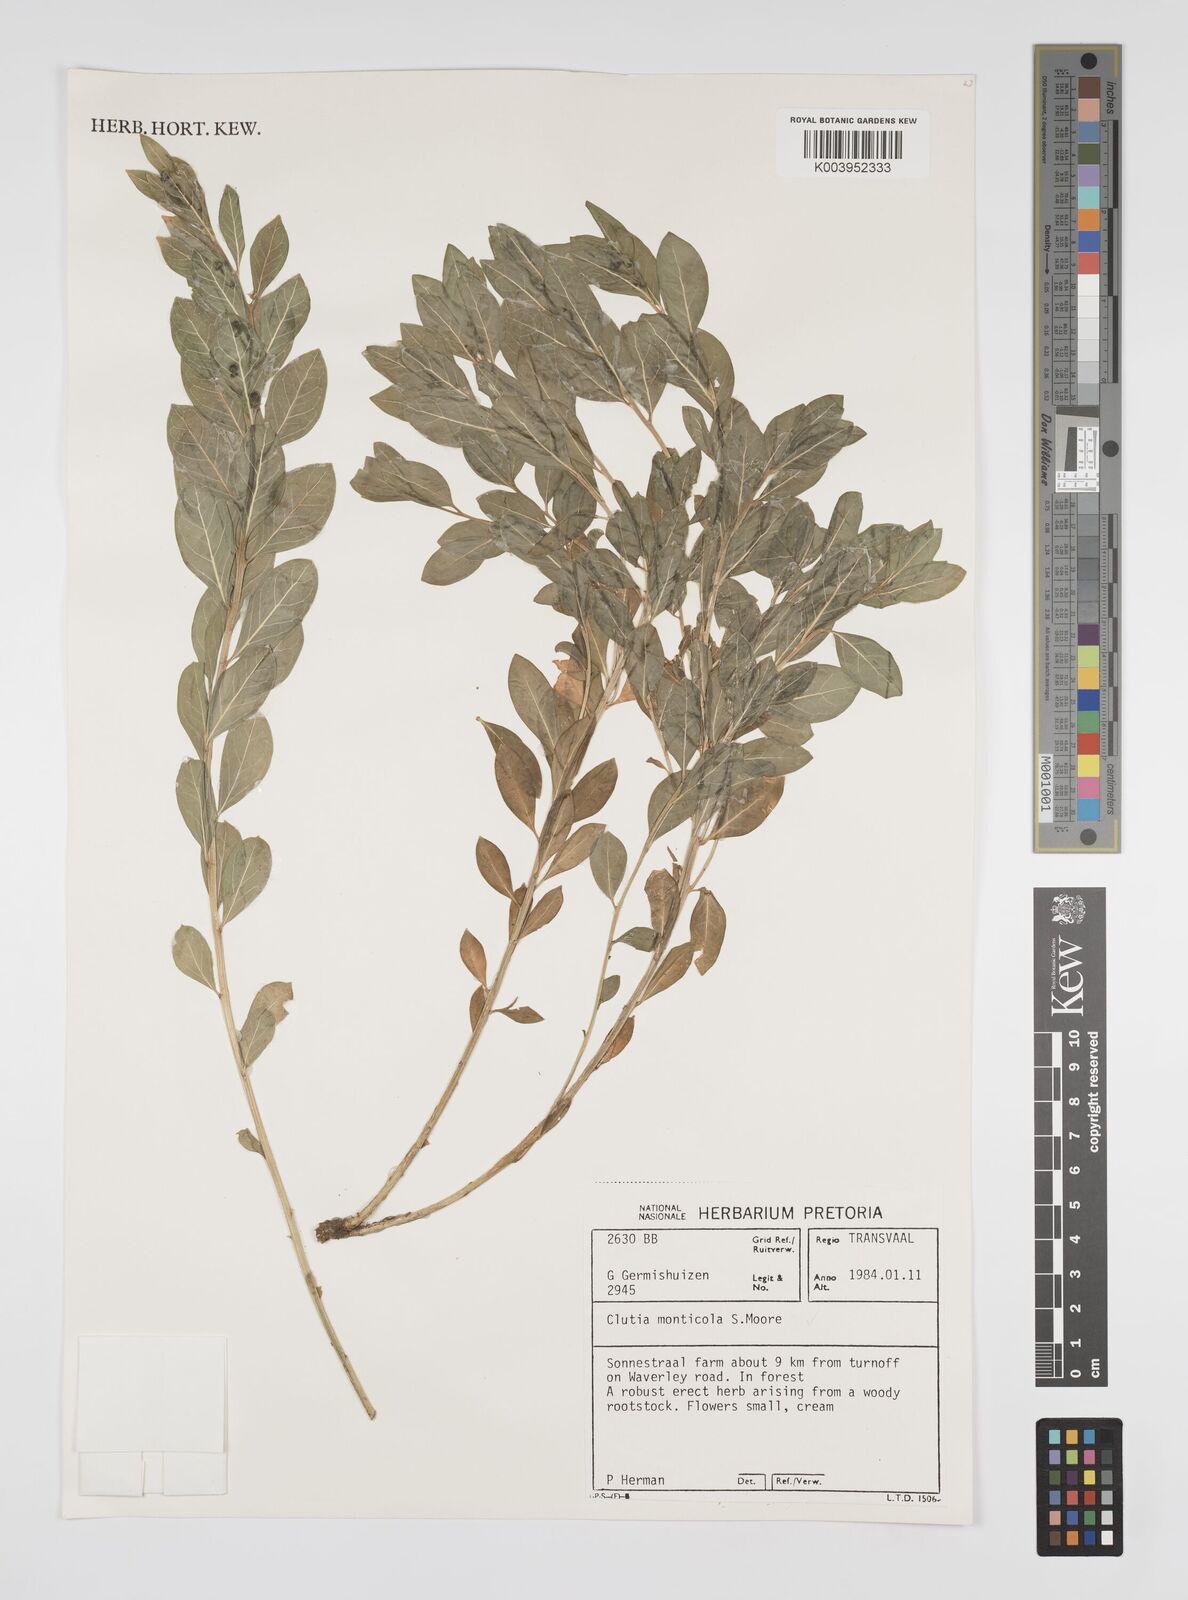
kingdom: Plantae
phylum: Tracheophyta
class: Magnoliopsida
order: Malpighiales
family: Peraceae
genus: Clutia
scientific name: Clutia monticola
